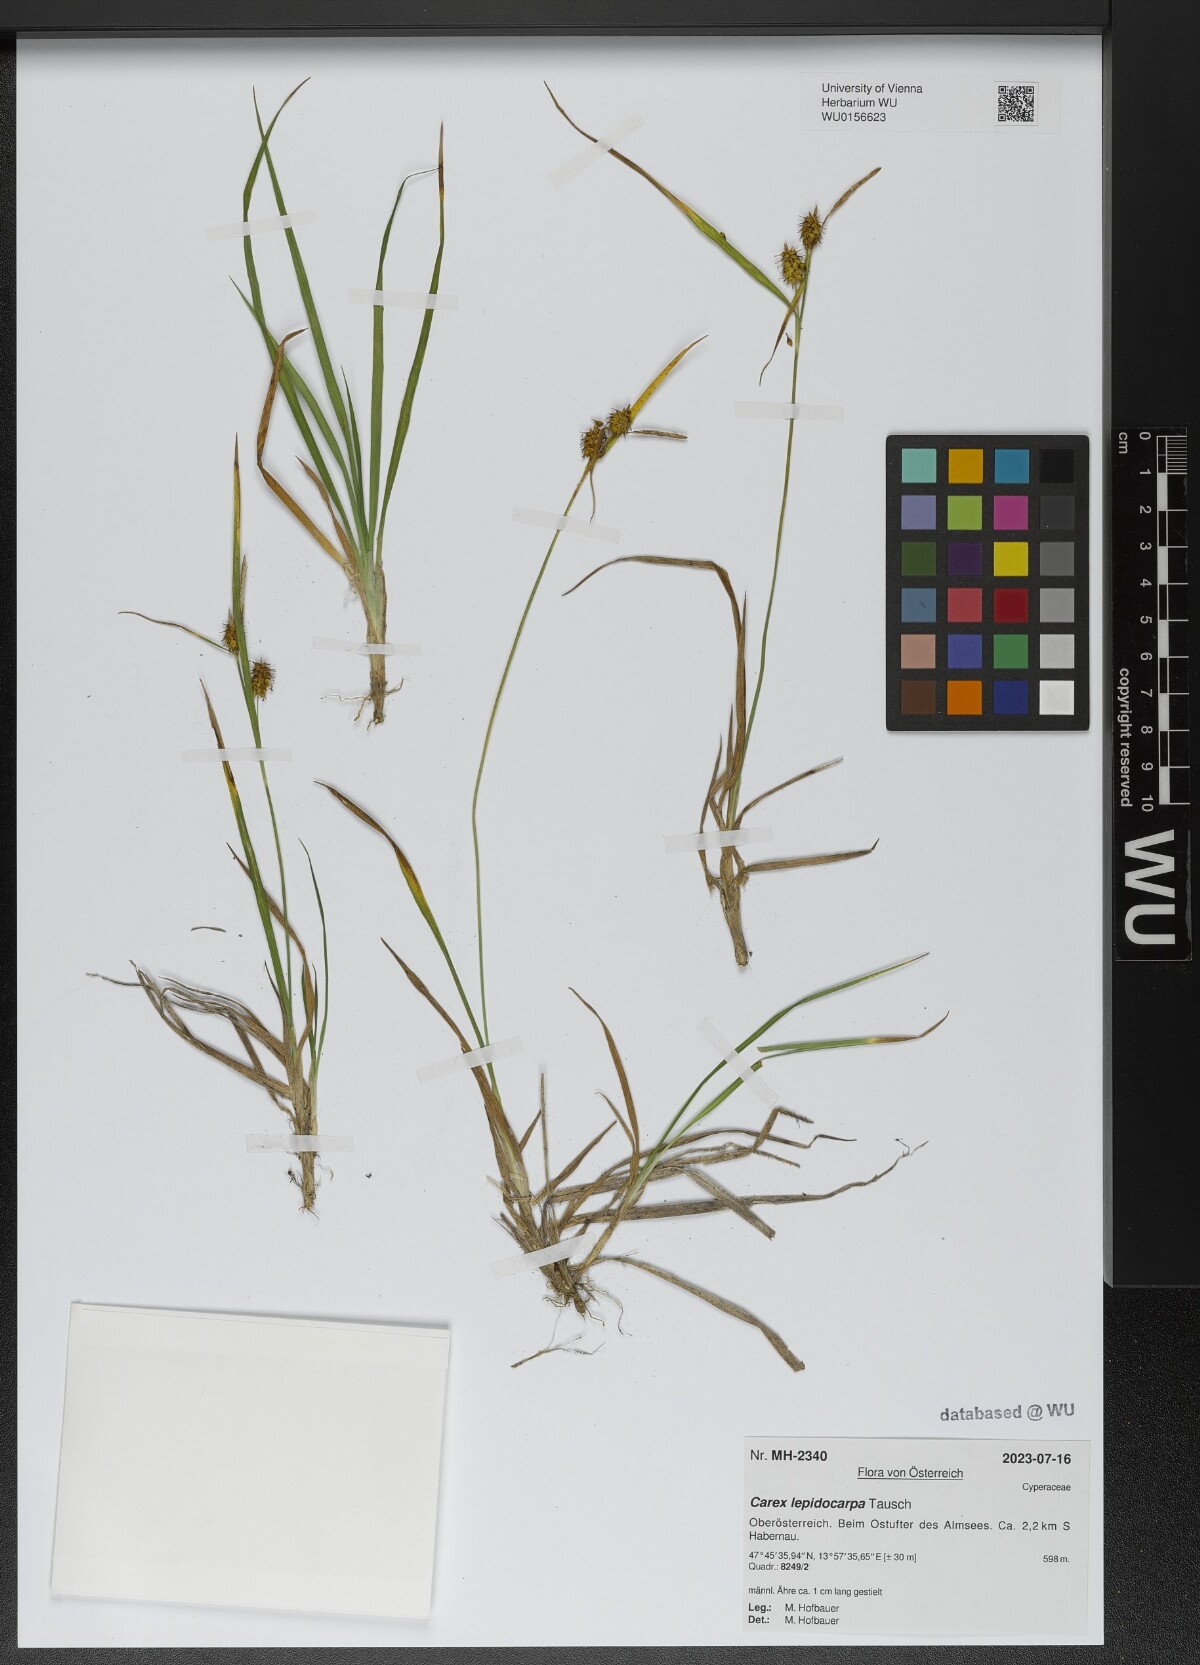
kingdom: Plantae
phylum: Tracheophyta
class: Liliopsida
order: Poales
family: Cyperaceae
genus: Carex
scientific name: Carex lepidocarpa
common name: Long-stalked yellow-sedge
